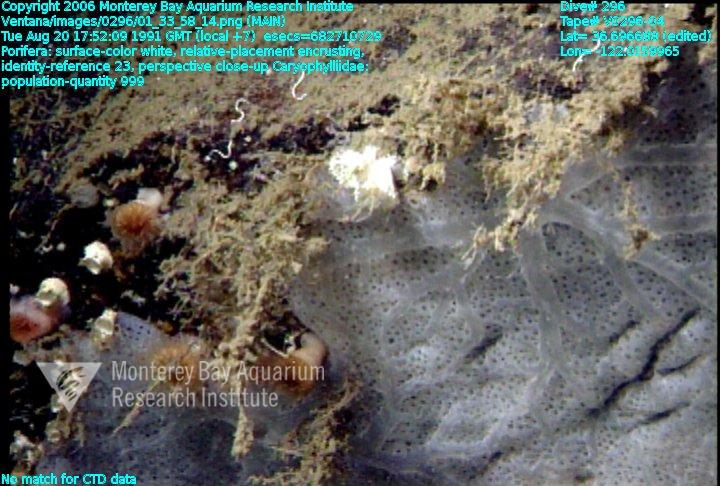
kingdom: Animalia
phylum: Porifera
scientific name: Porifera
